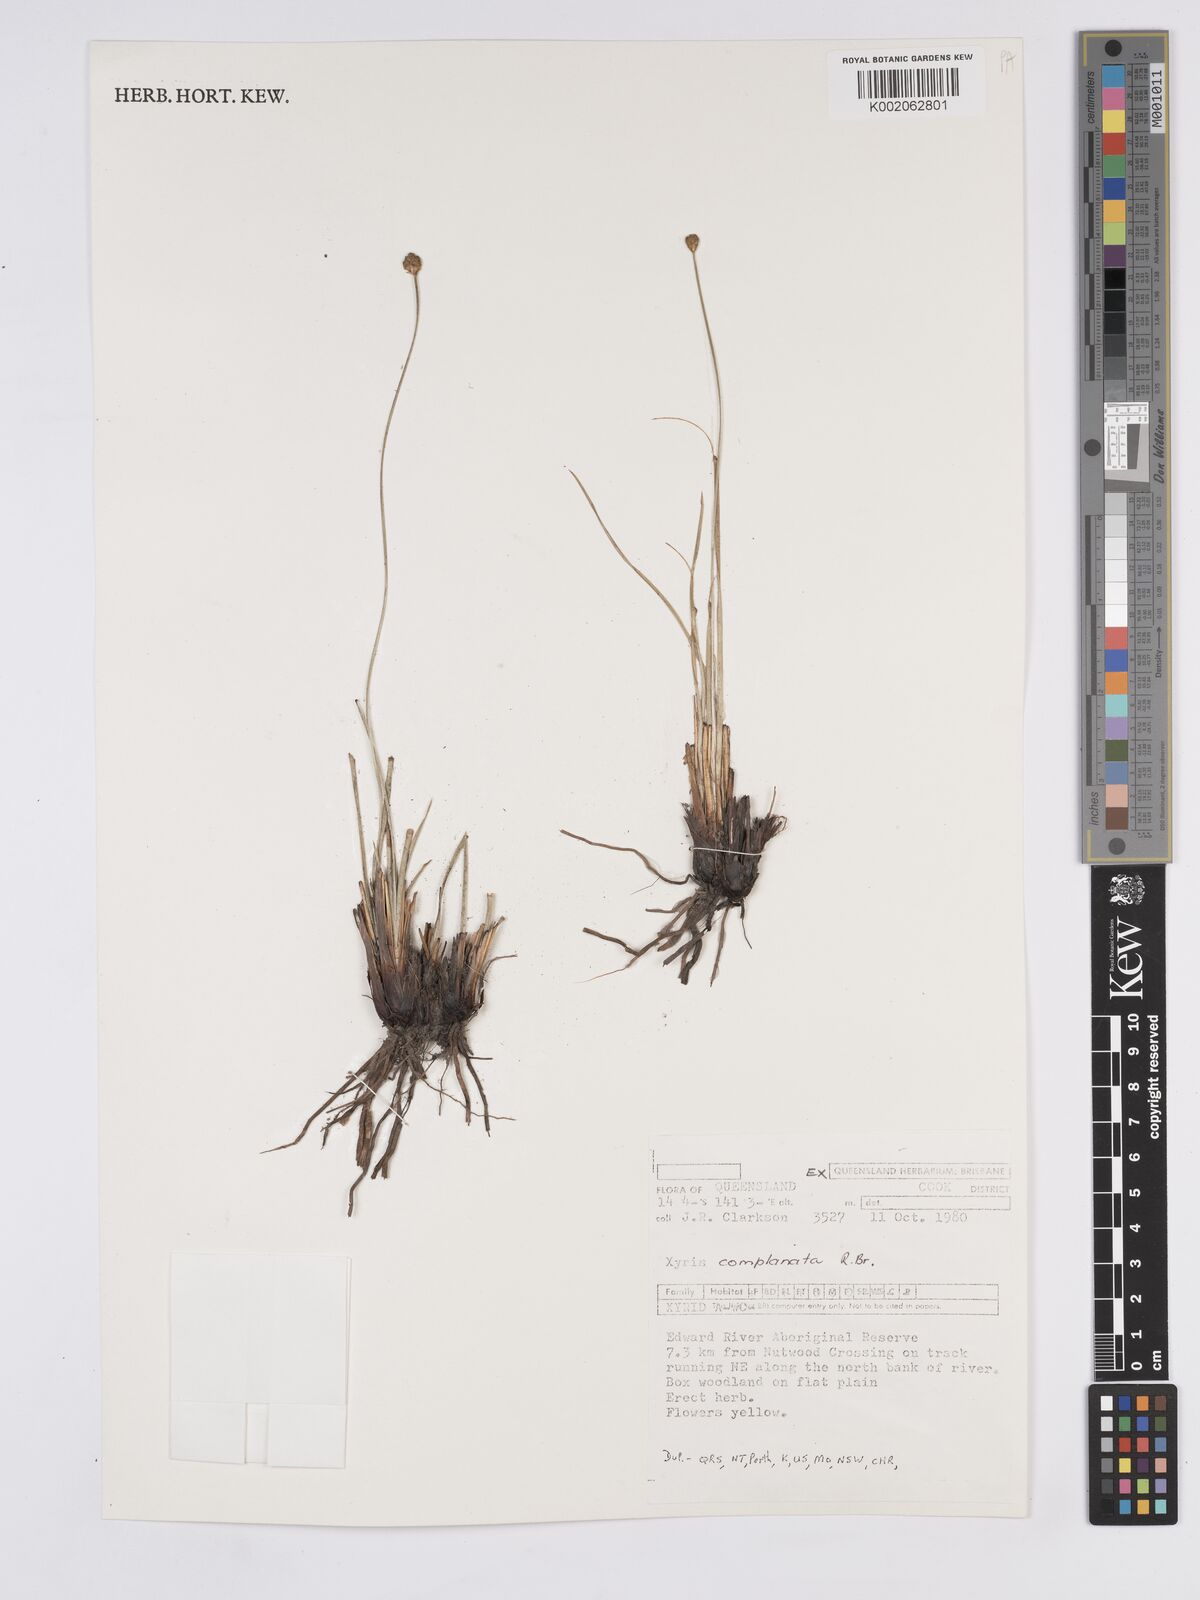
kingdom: Plantae
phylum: Tracheophyta
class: Liliopsida
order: Poales
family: Xyridaceae
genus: Xyris
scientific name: Xyris complanata
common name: Hawai'i yelloweyed grass
